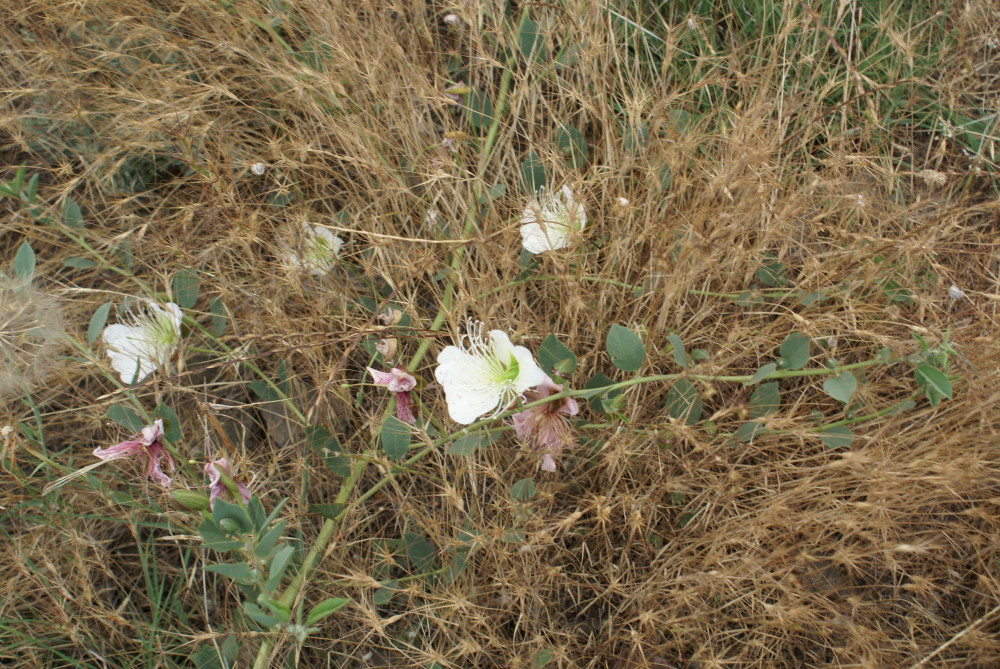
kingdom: Plantae
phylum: Tracheophyta
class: Magnoliopsida
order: Brassicales
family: Capparaceae
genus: Capparis
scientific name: Capparis spinosa
